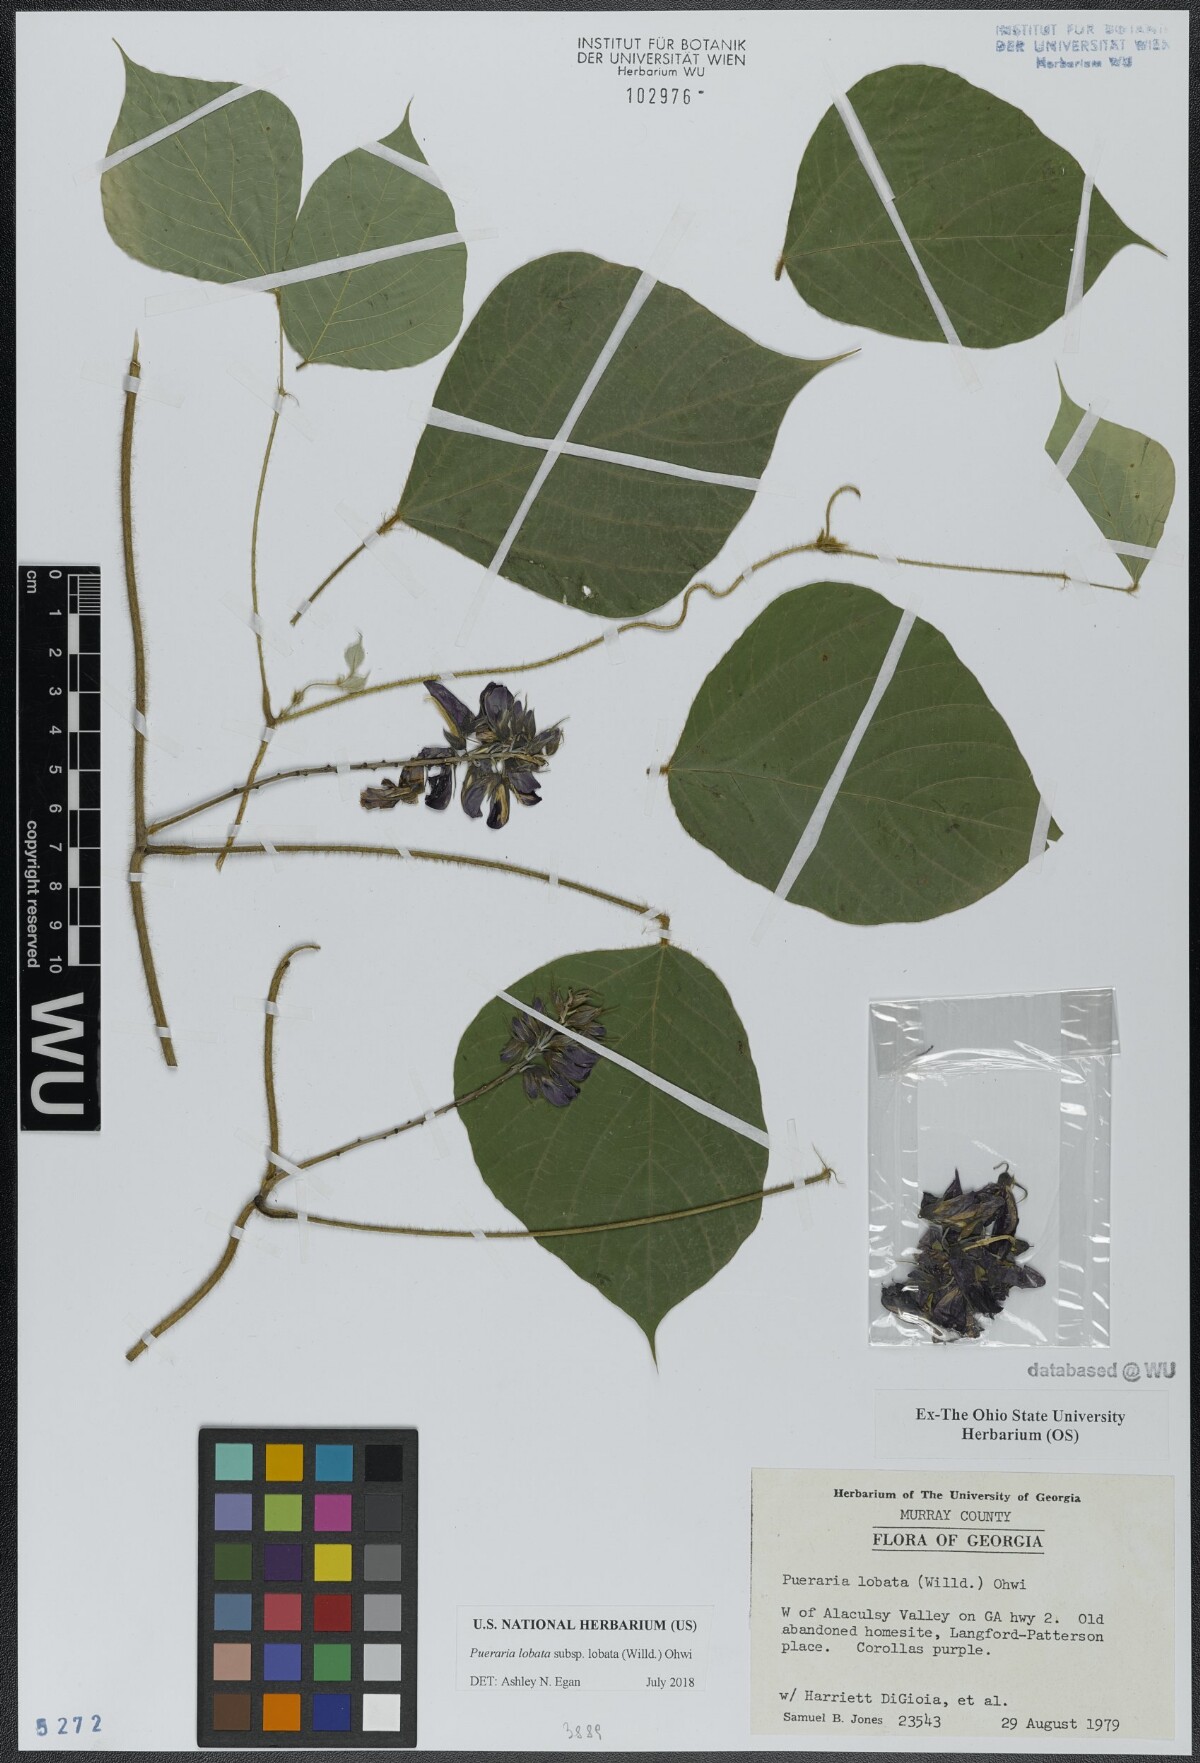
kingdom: Plantae
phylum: Tracheophyta
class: Magnoliopsida
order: Fabales
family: Fabaceae
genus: Pueraria
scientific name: Pueraria montana
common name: Kudzu
